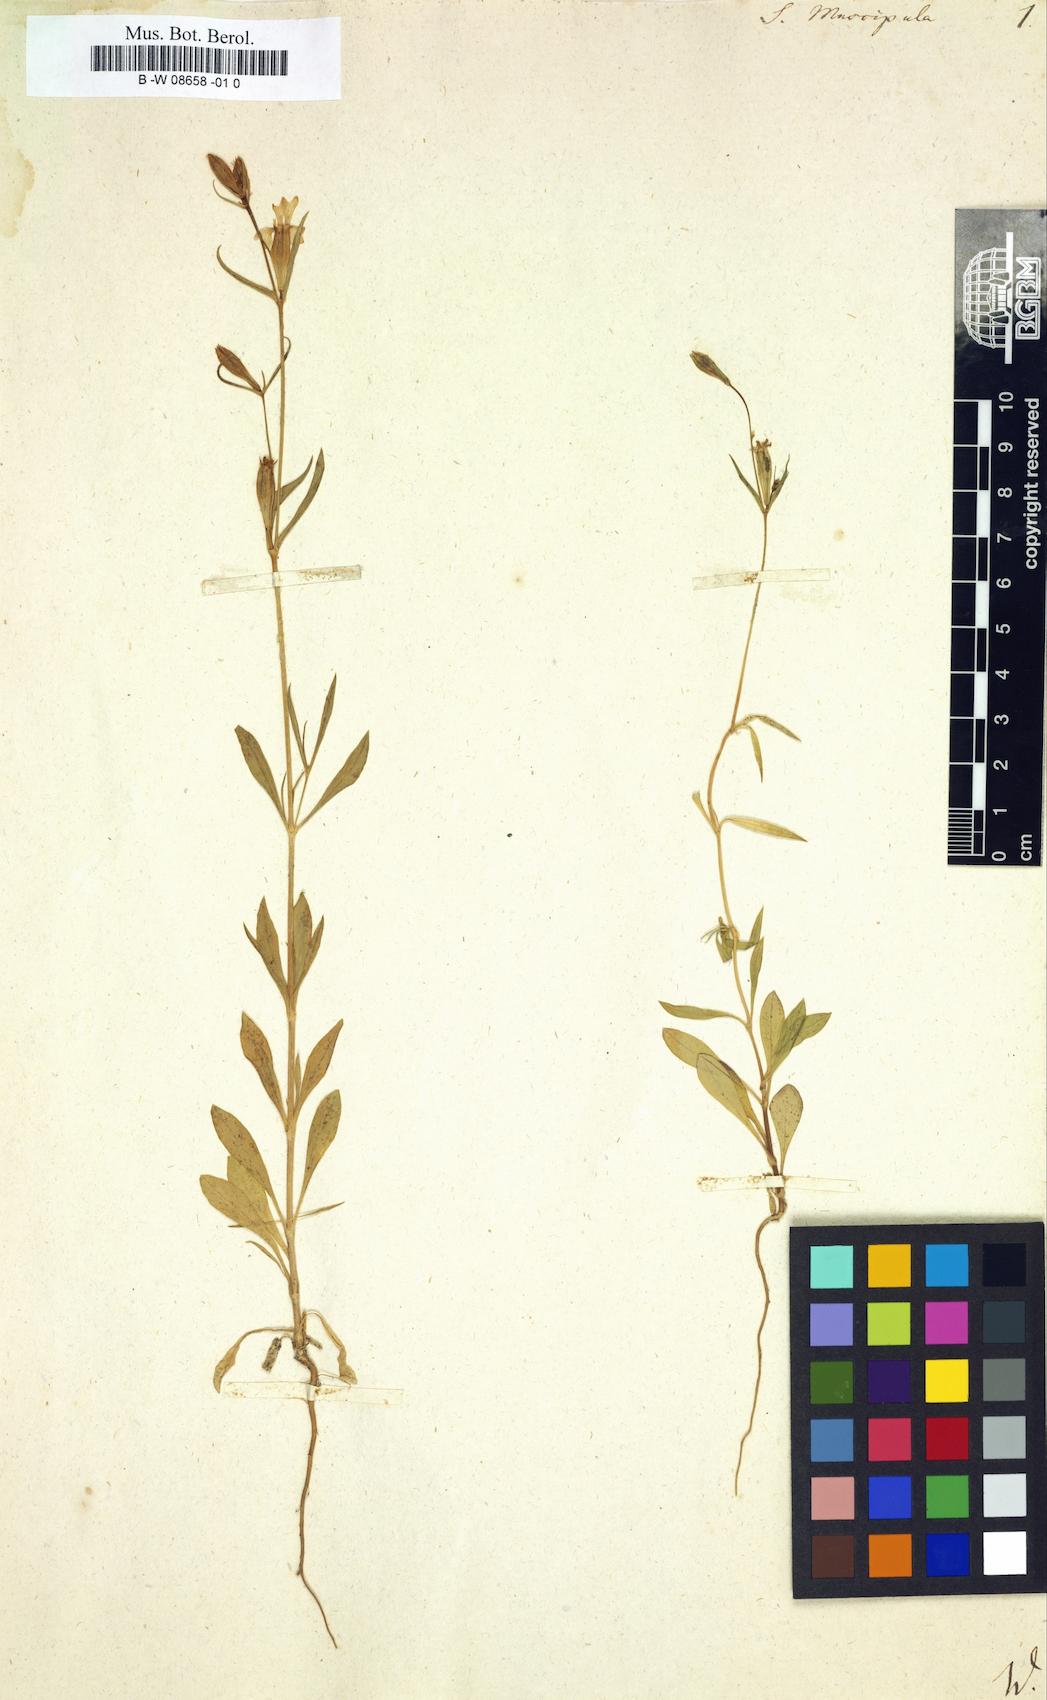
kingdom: Plantae
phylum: Tracheophyta
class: Magnoliopsida
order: Caryophyllales
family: Caryophyllaceae
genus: Silene
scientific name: Silene muscipula
